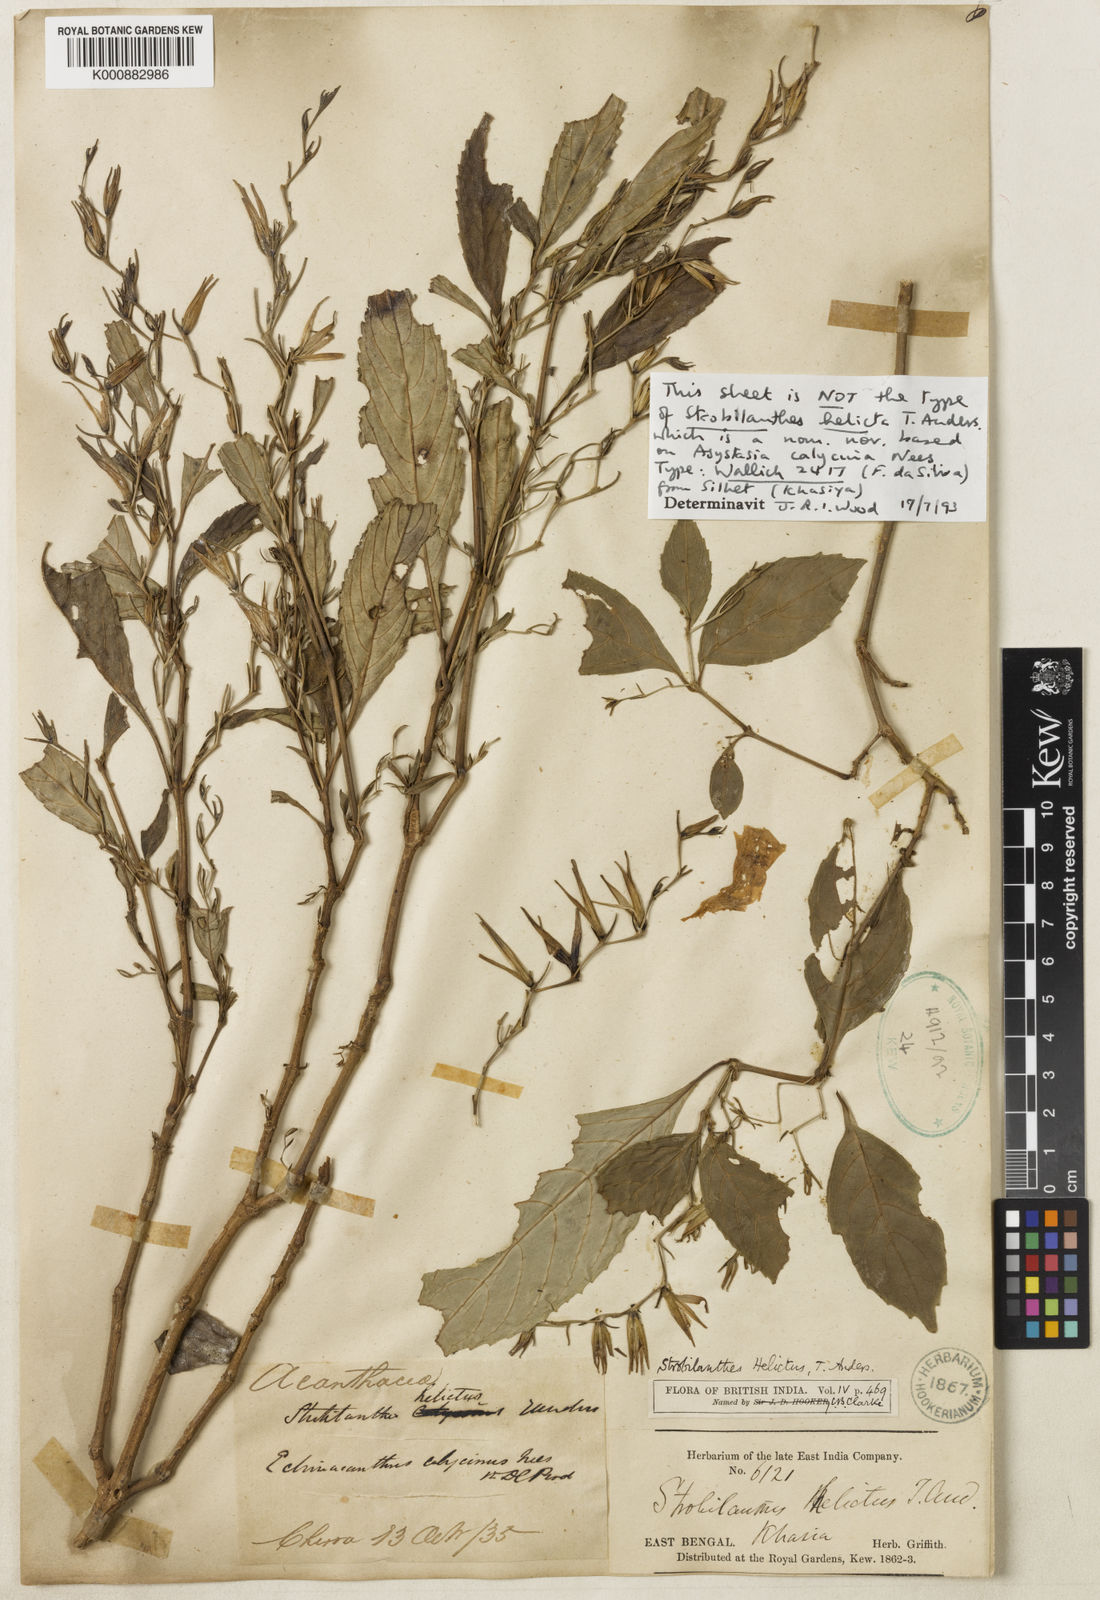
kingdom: Plantae
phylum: Tracheophyta
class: Magnoliopsida
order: Lamiales
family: Acanthaceae
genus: Strobilanthes
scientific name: Strobilanthes
